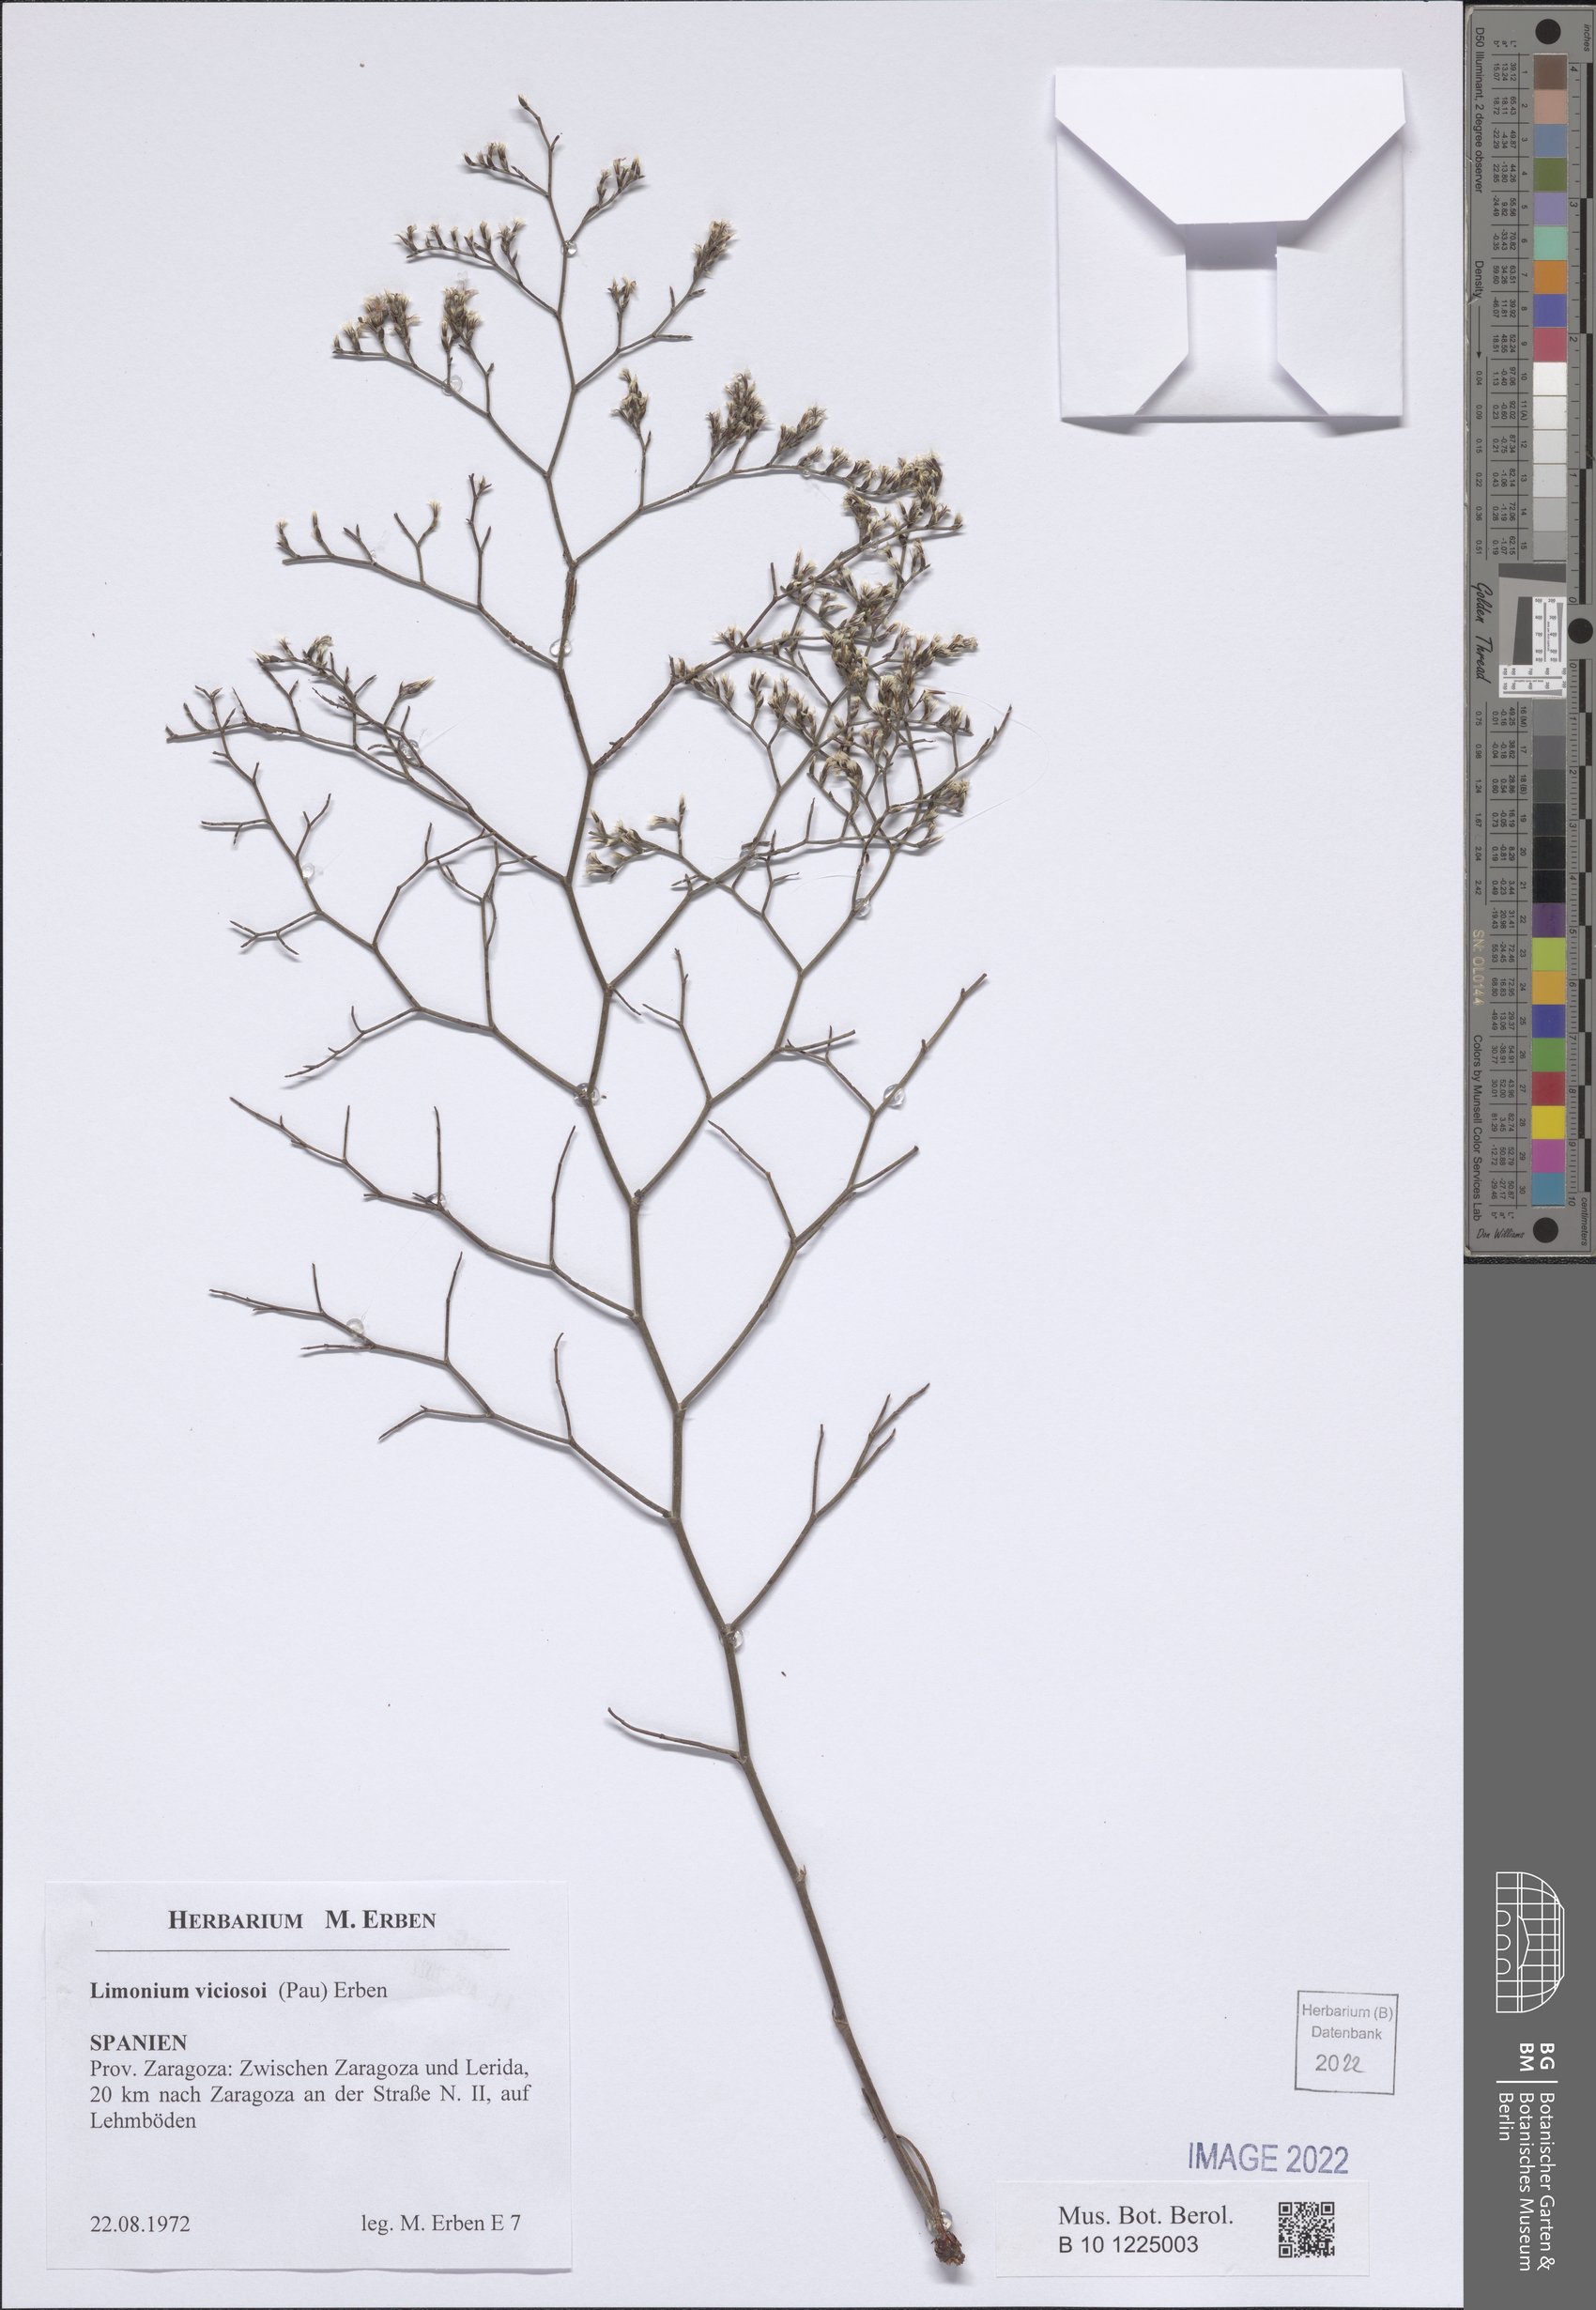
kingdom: Plantae
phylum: Tracheophyta
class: Magnoliopsida
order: Caryophyllales
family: Plumbaginaceae
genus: Limonium
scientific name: Limonium viciosoi
